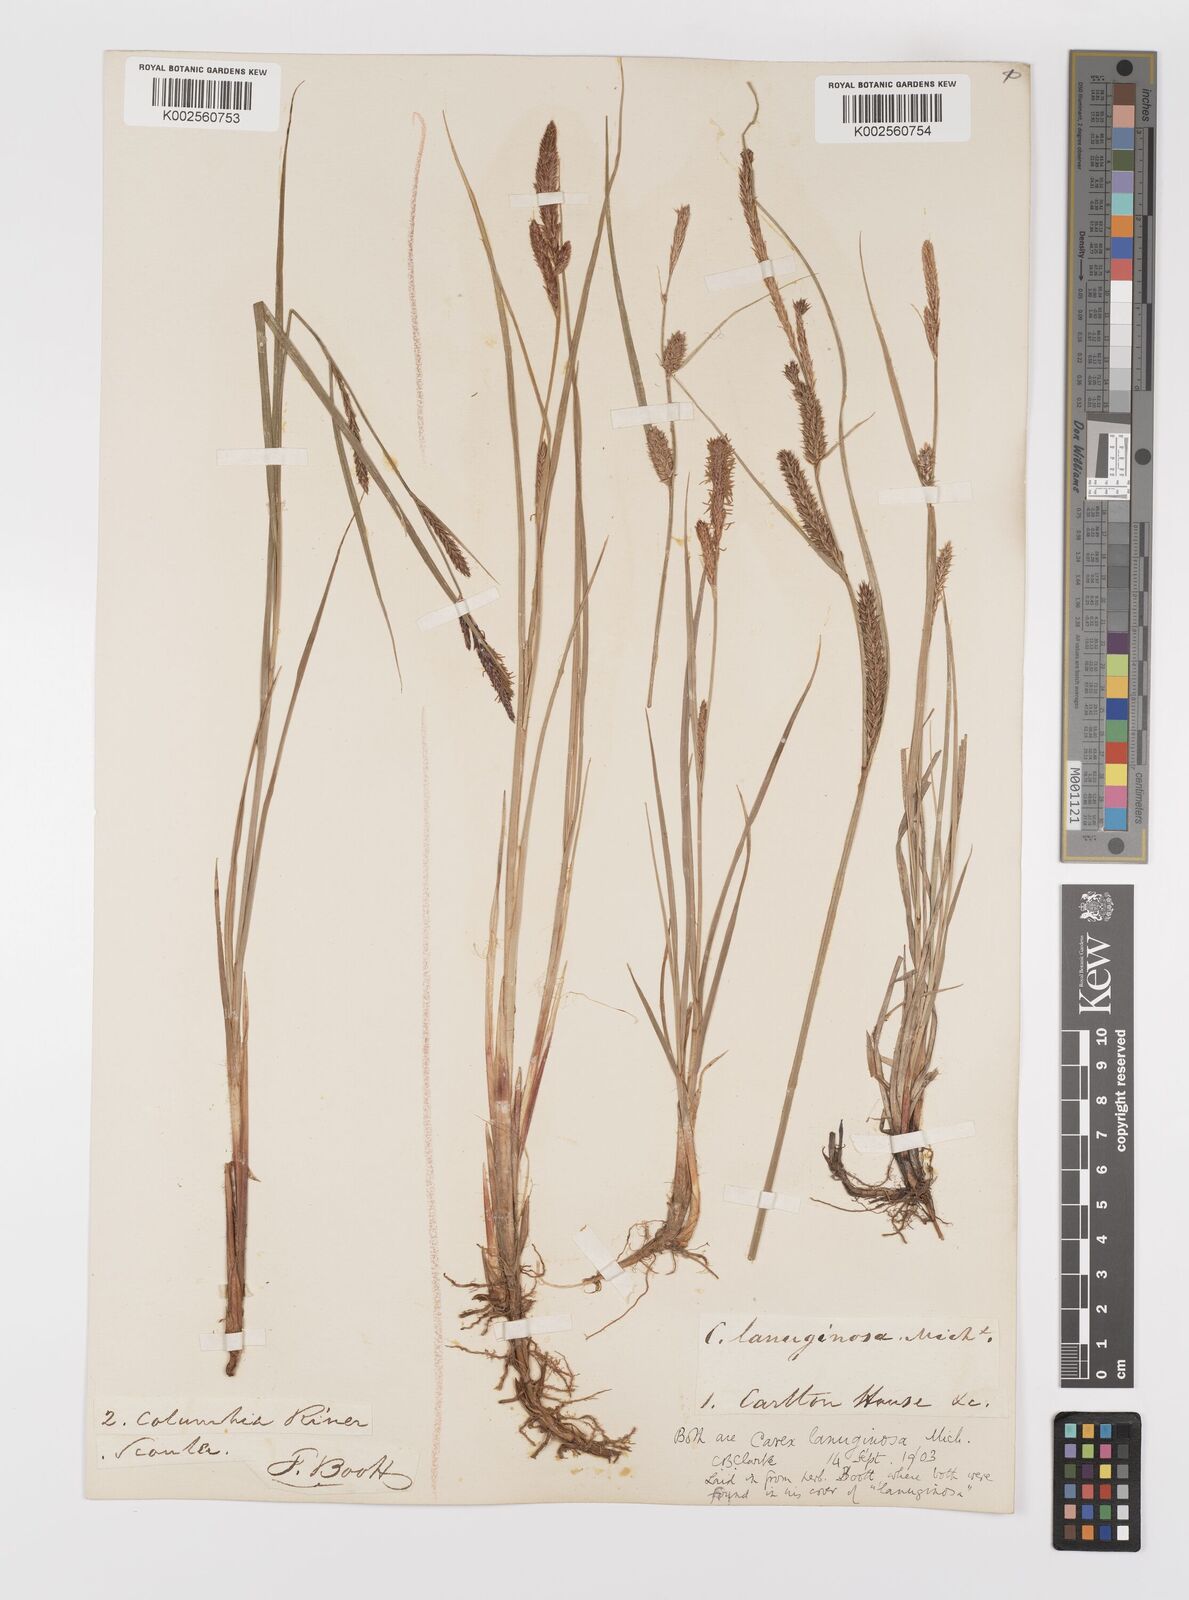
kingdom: Plantae
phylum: Tracheophyta
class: Liliopsida
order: Poales
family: Cyperaceae
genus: Carex
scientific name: Carex lasiocarpa
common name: Slender sedge
